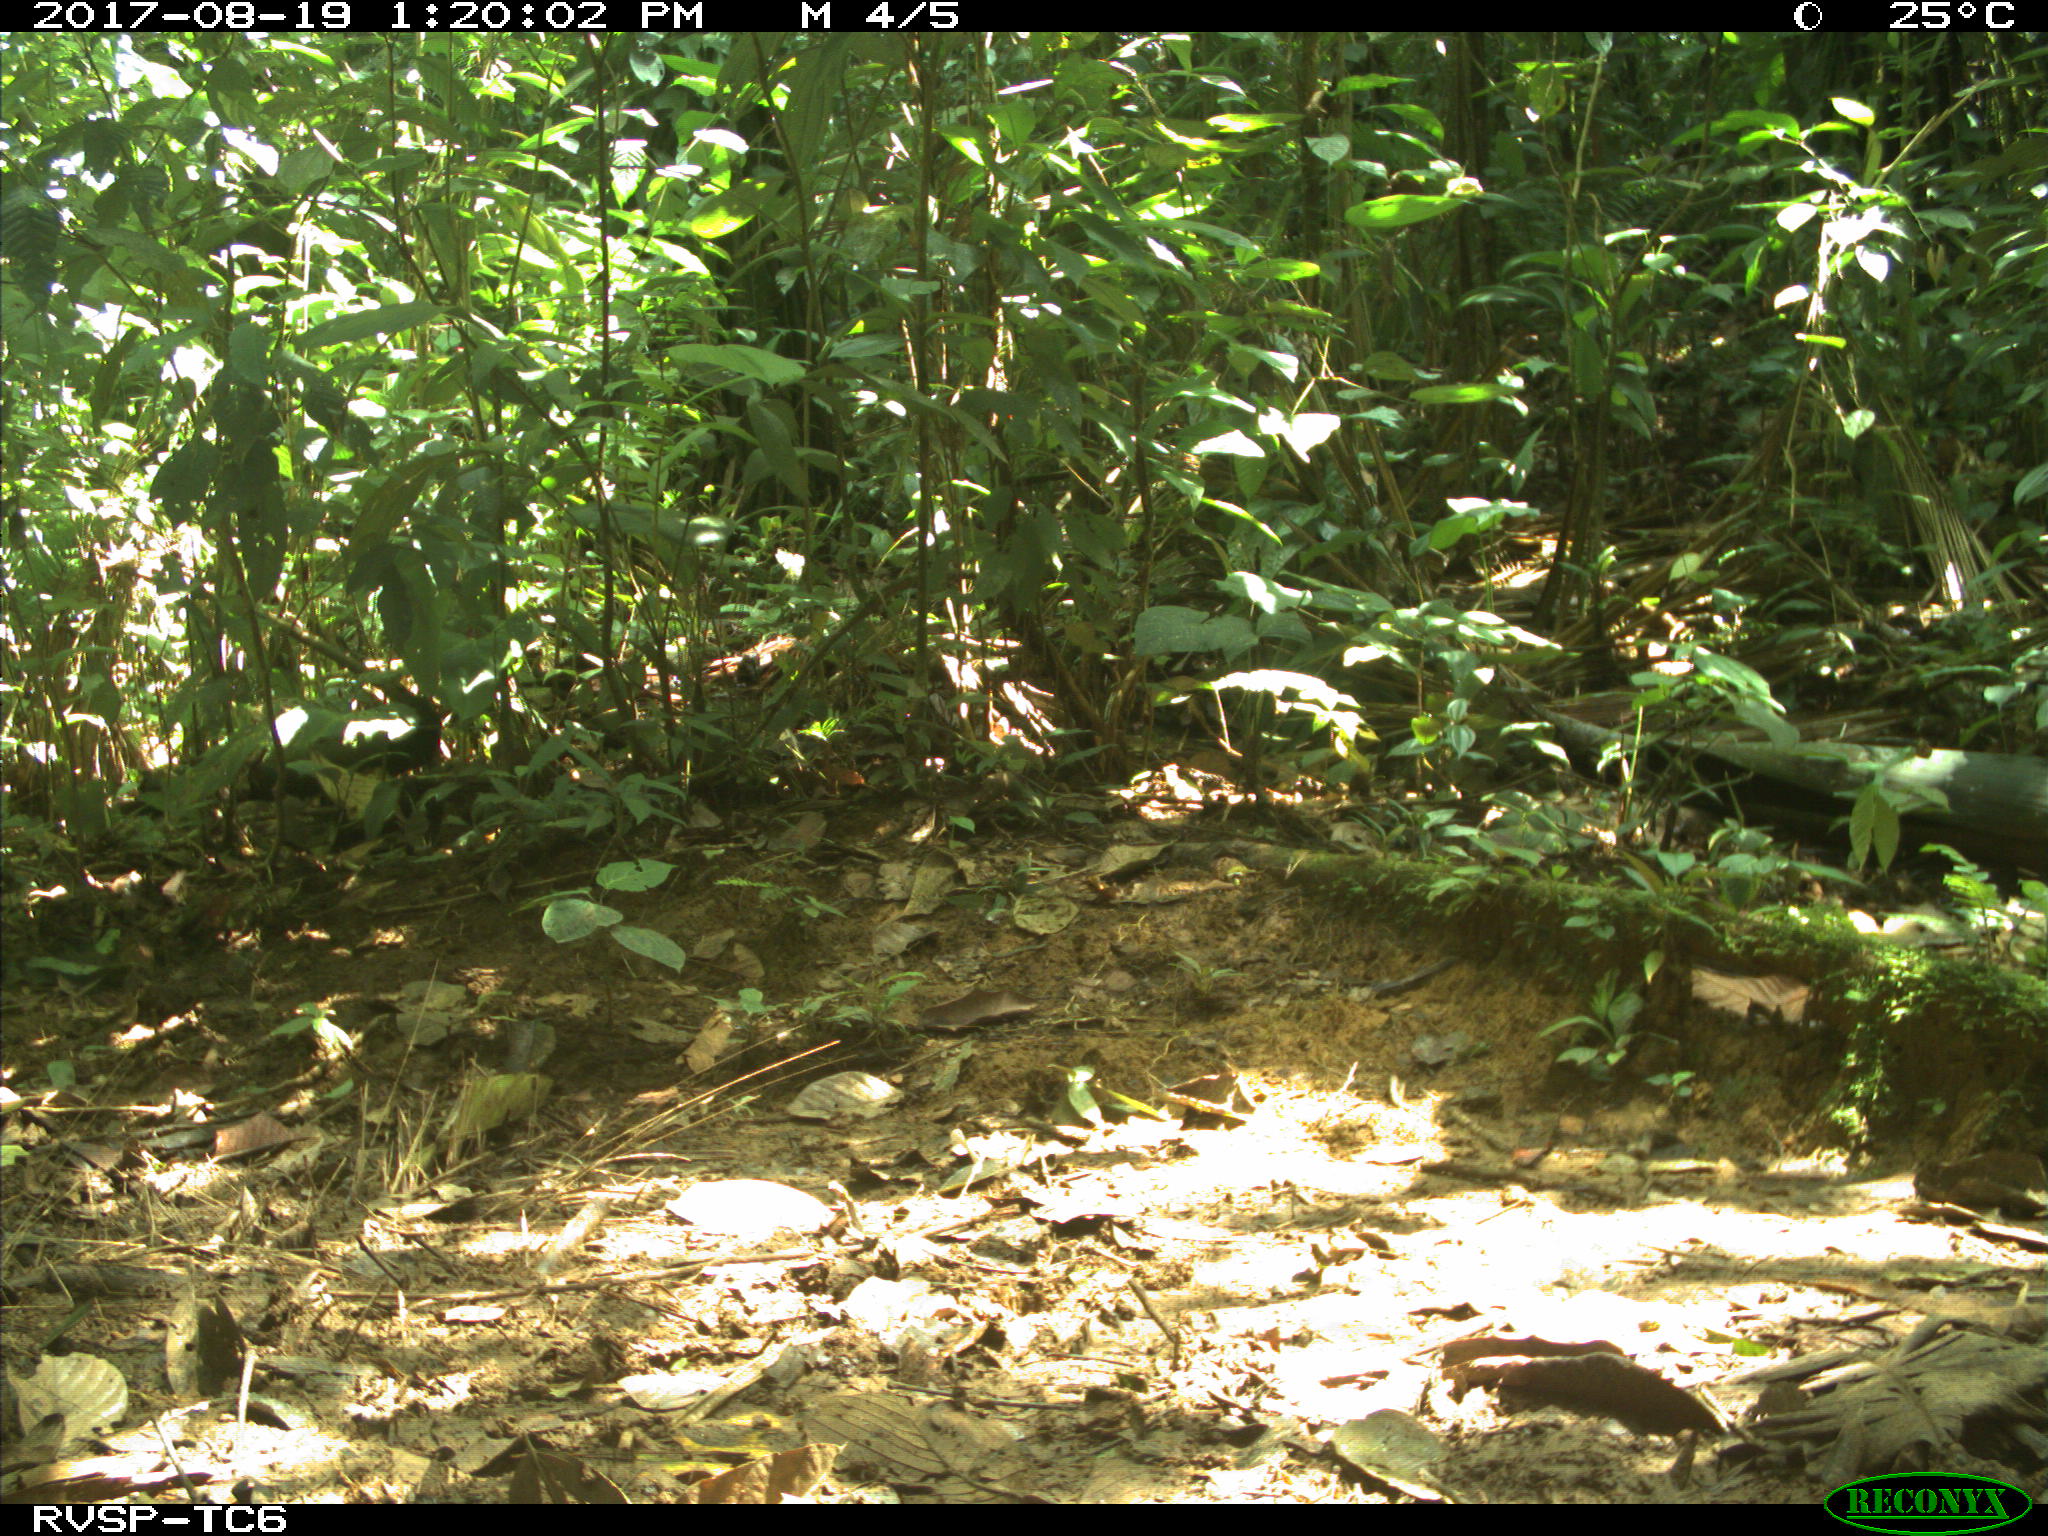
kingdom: Animalia
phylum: Chordata
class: Mammalia
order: Rodentia
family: Dasyproctidae
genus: Dasyprocta
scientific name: Dasyprocta punctata
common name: Central american agouti
